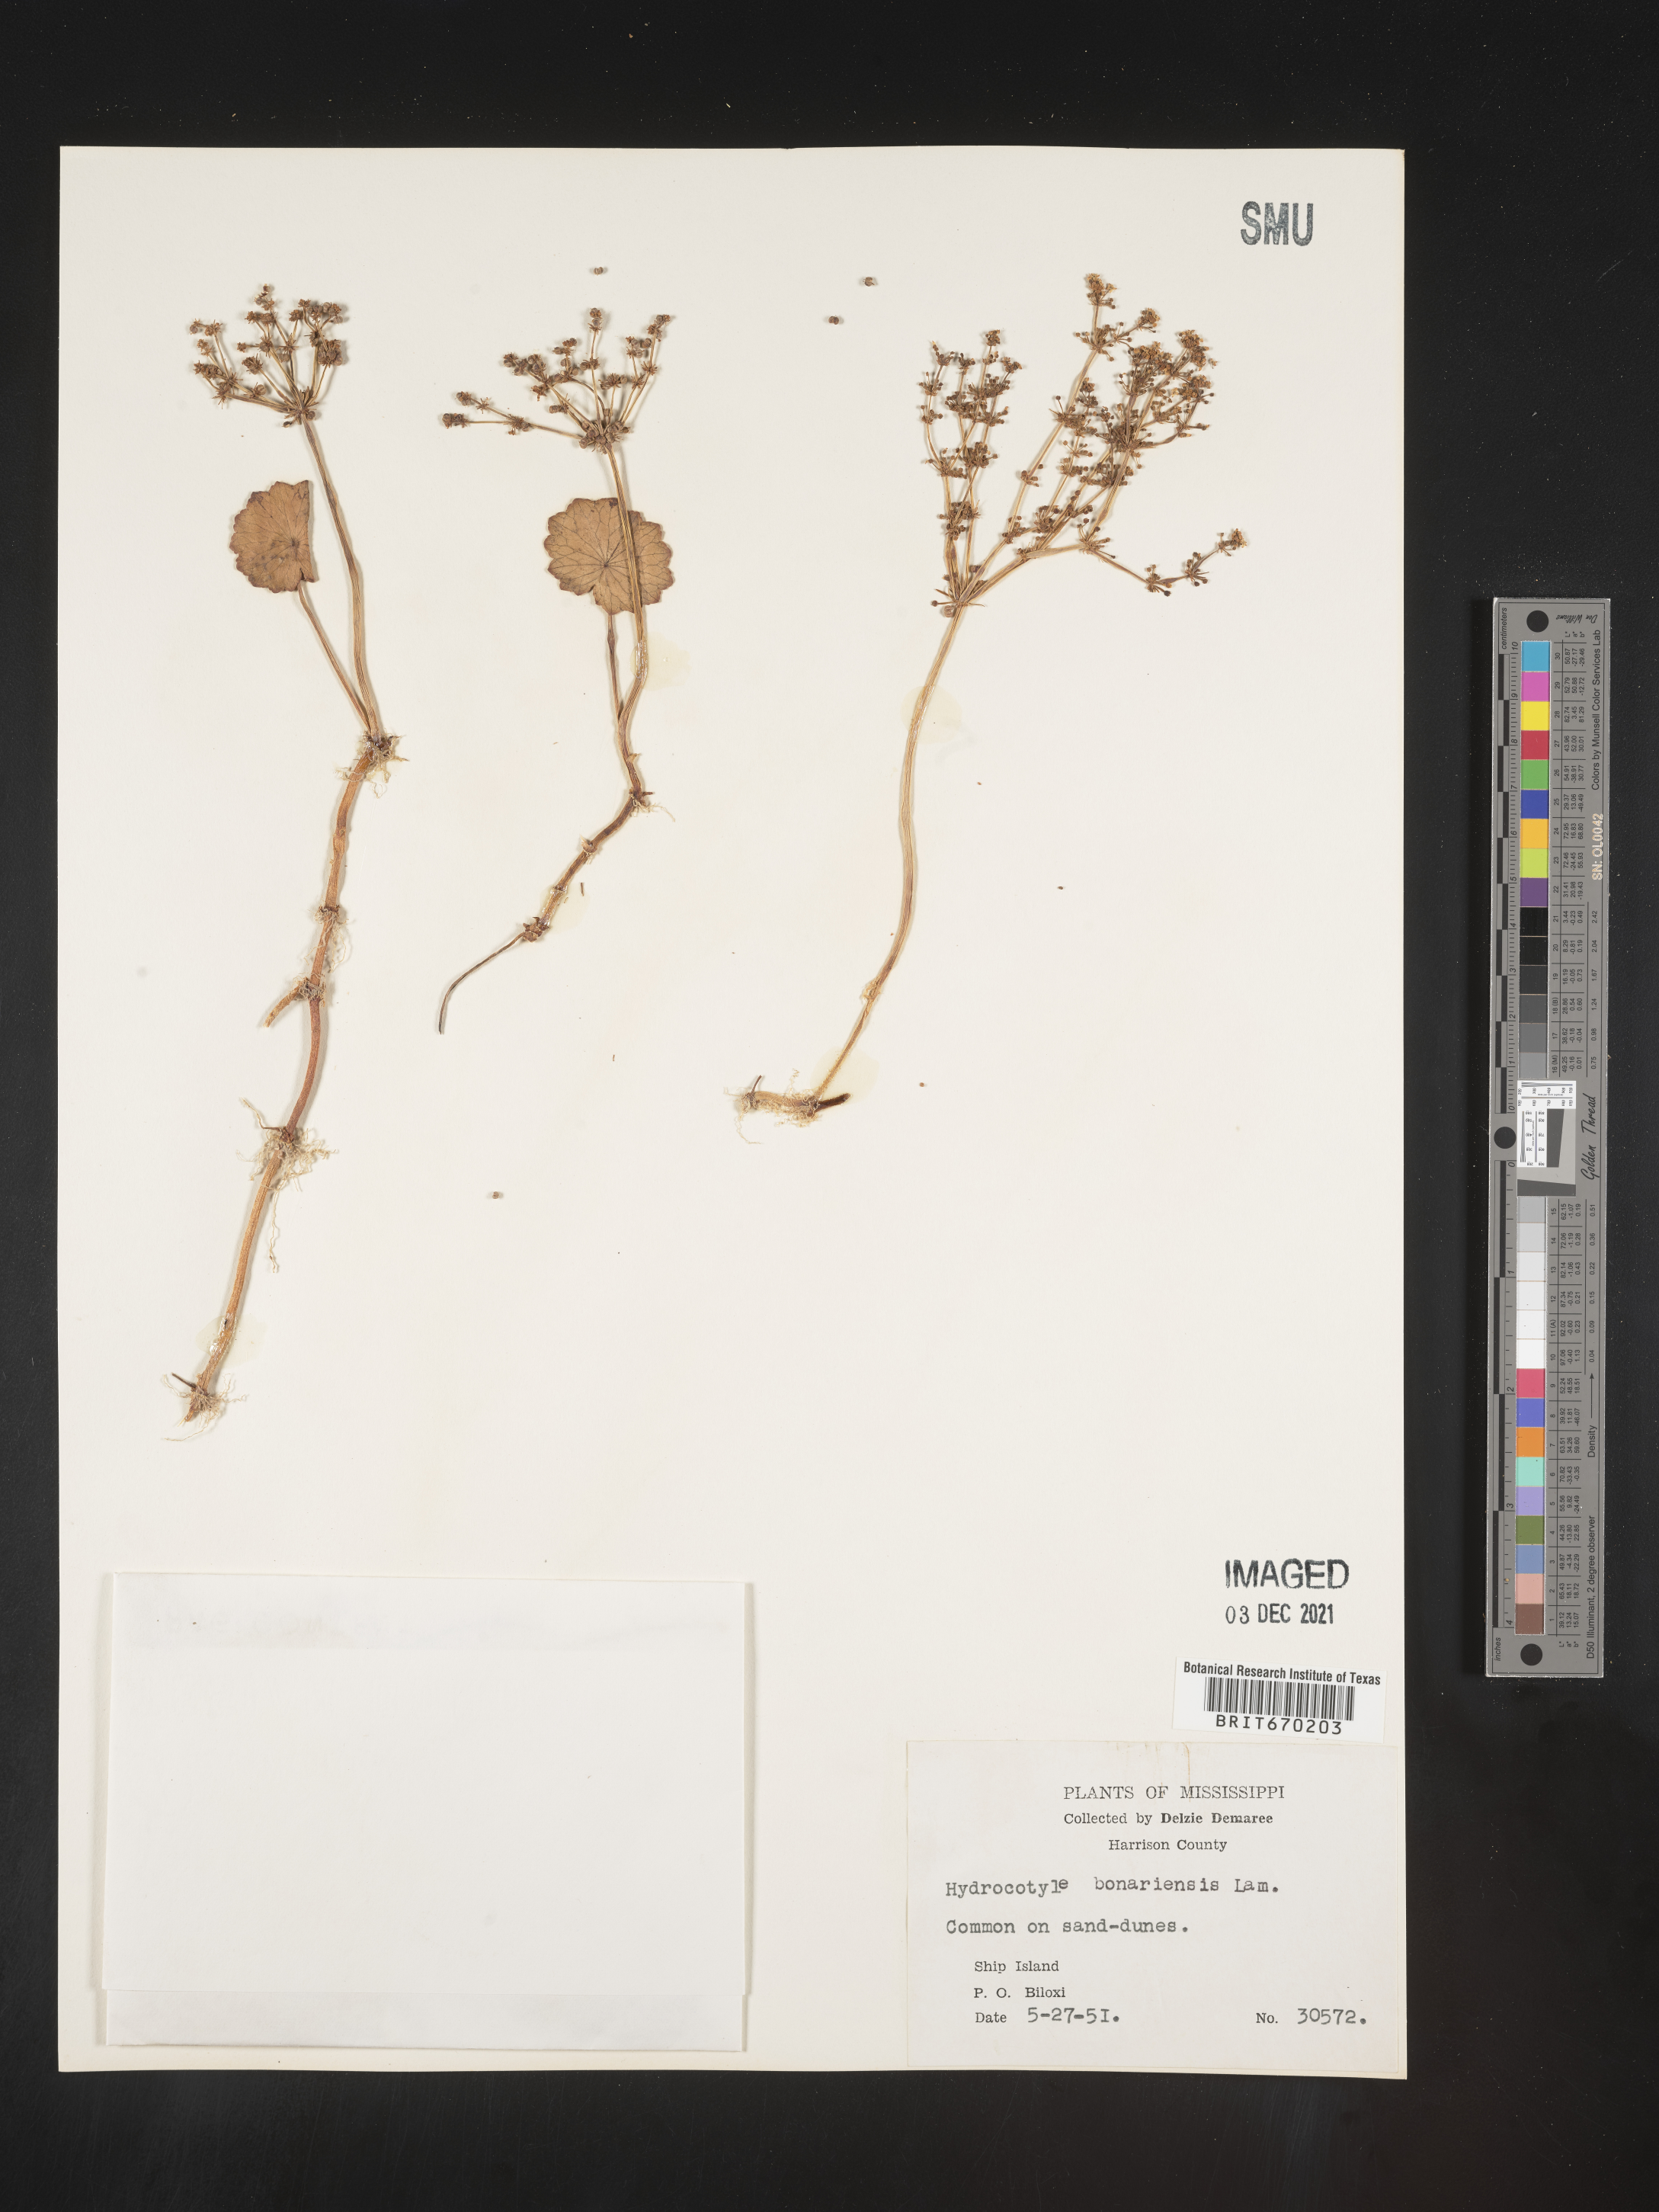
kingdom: Plantae
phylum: Tracheophyta
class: Magnoliopsida
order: Apiales
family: Araliaceae
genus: Hydrocotyle
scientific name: Hydrocotyle bonariensis
